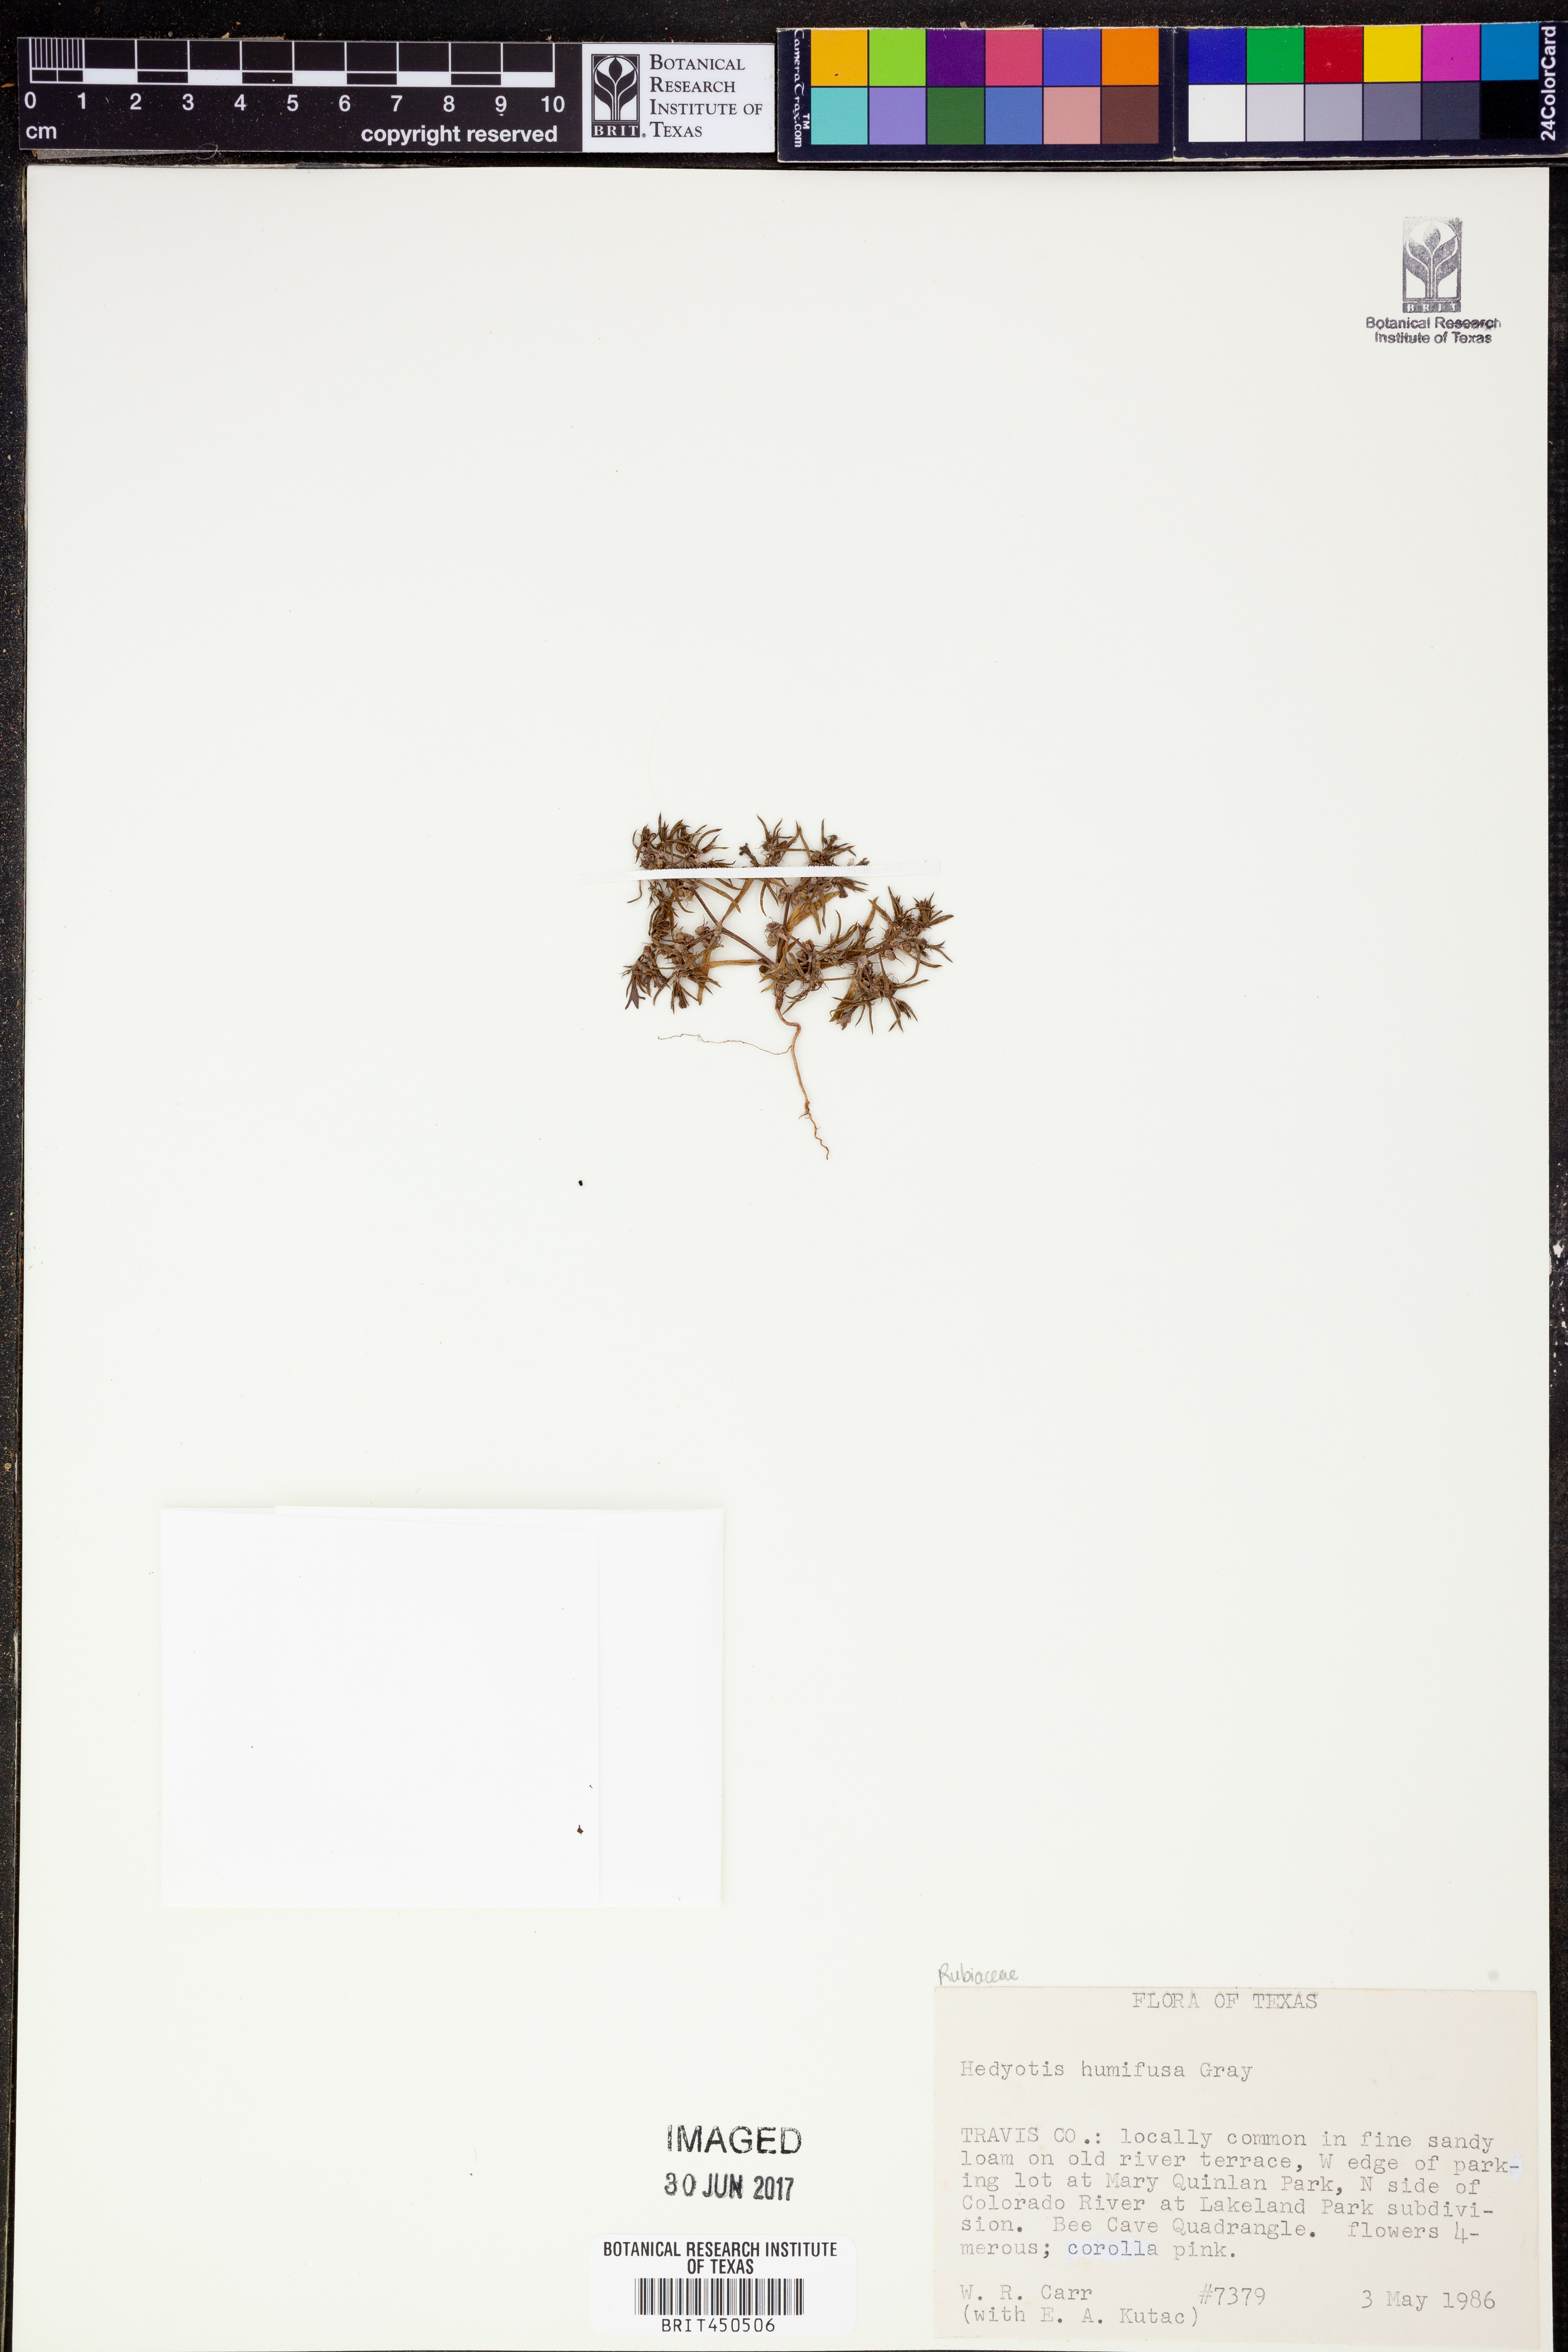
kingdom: Plantae
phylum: Tracheophyta
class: Magnoliopsida
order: Gentianales
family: Rubiaceae
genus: Houstonia
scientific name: Houstonia humifusa
